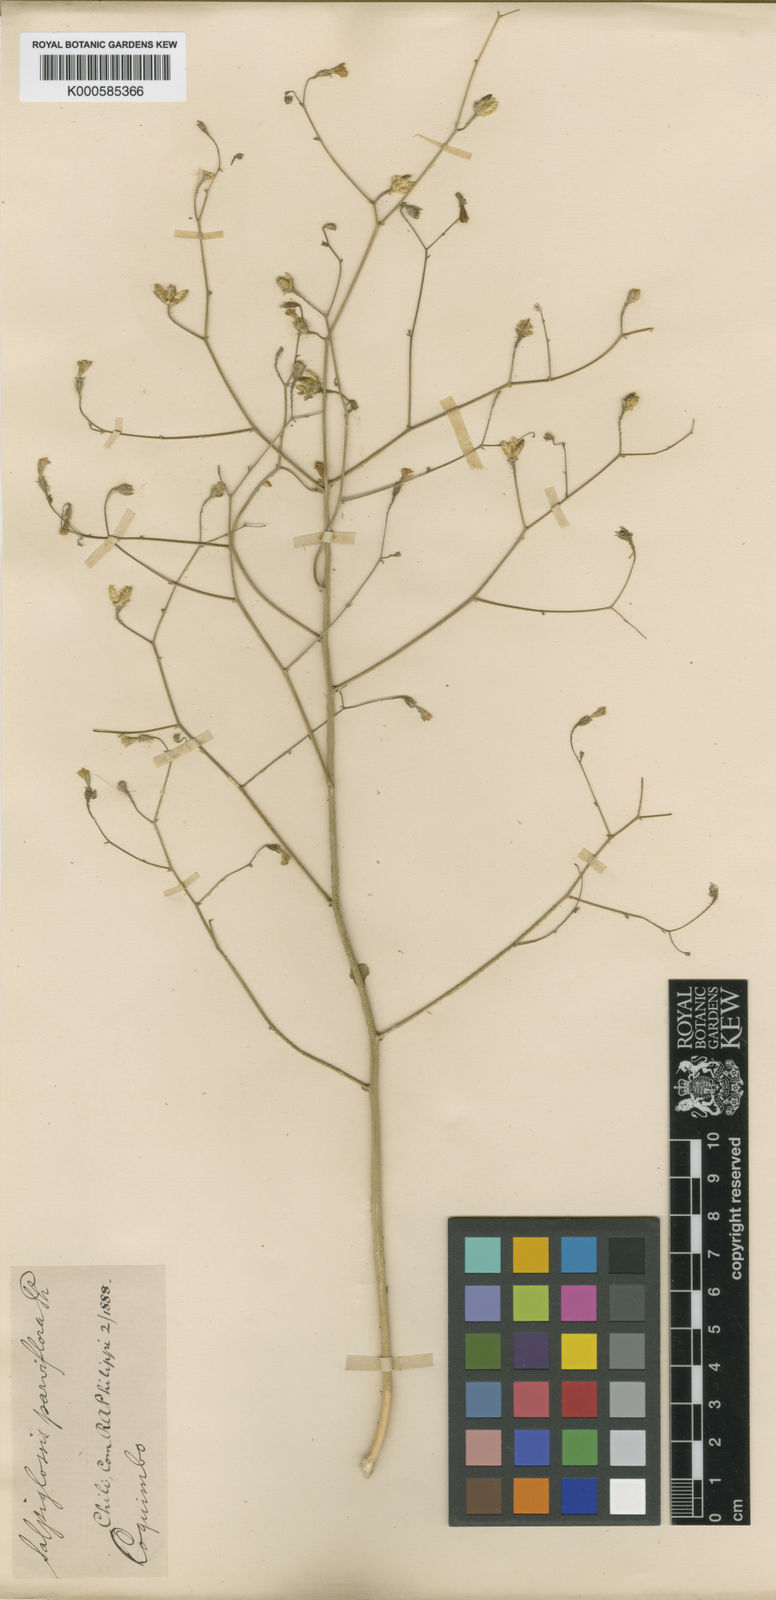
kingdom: Plantae
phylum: Tracheophyta
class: Magnoliopsida
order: Solanales
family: Solanaceae
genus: Reyesia
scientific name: Reyesia
